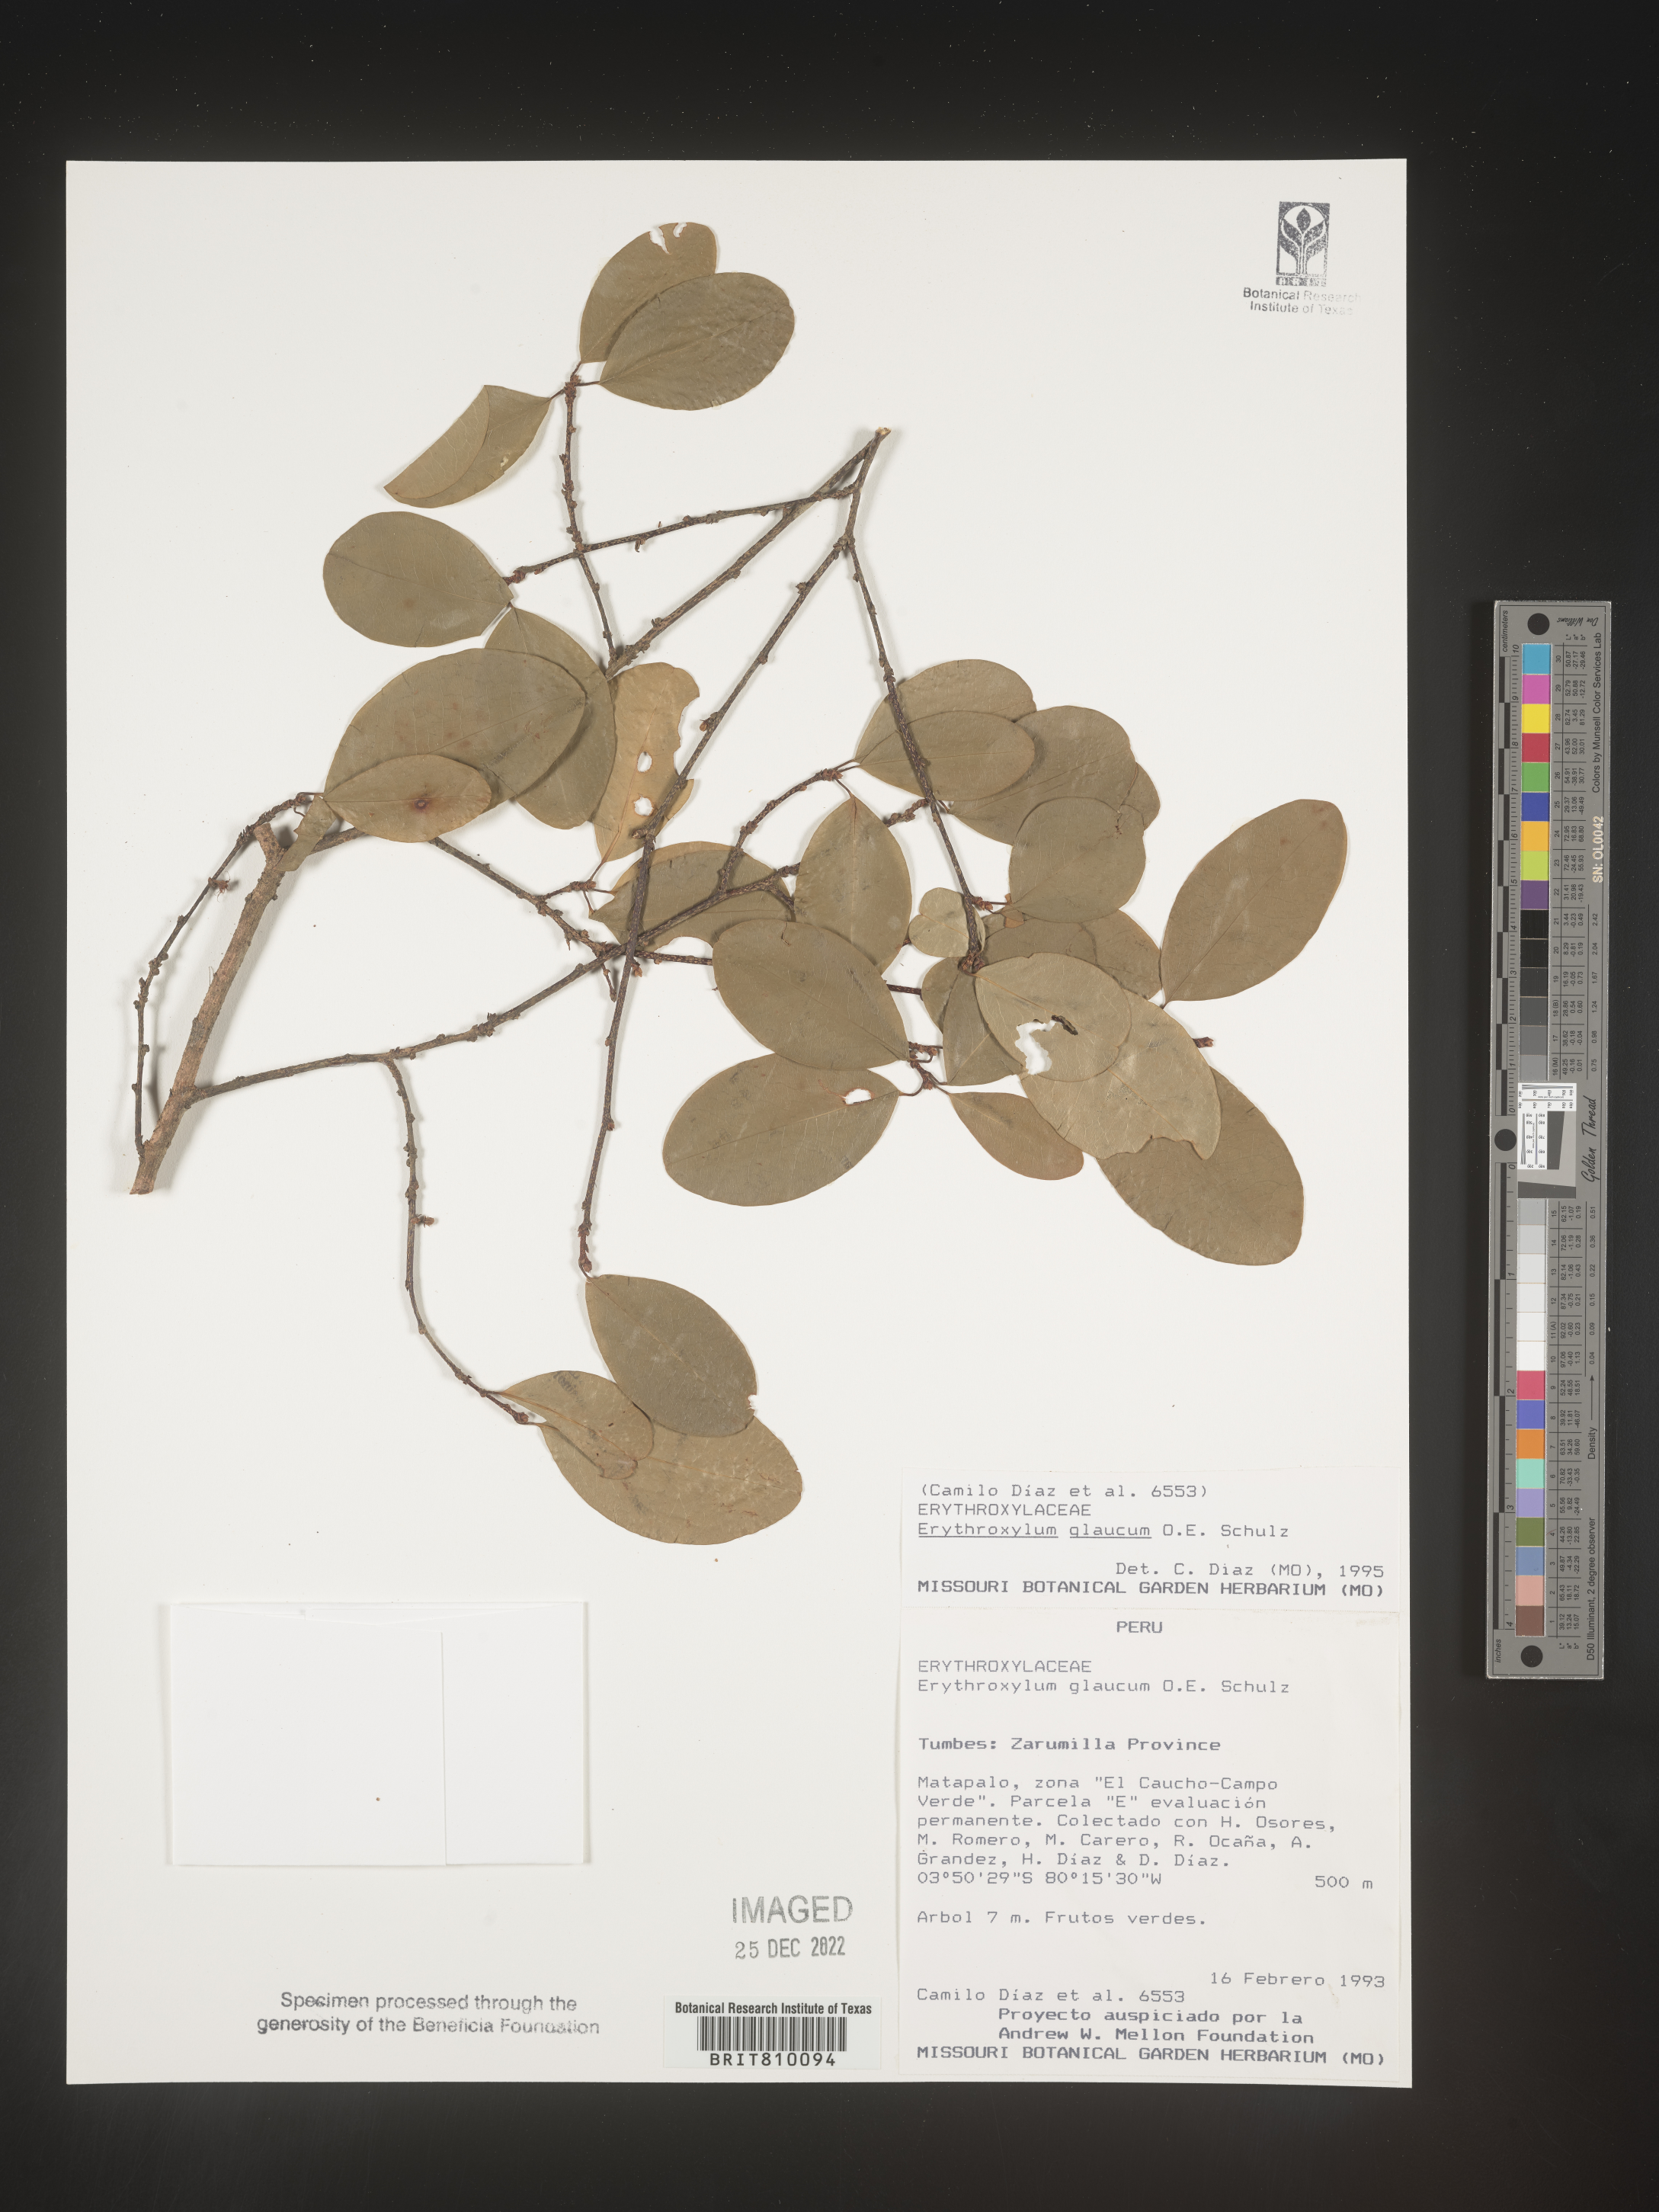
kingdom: Plantae
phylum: Tracheophyta
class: Magnoliopsida
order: Malpighiales
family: Erythroxylaceae
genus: Erythroxylum
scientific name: Erythroxylum
